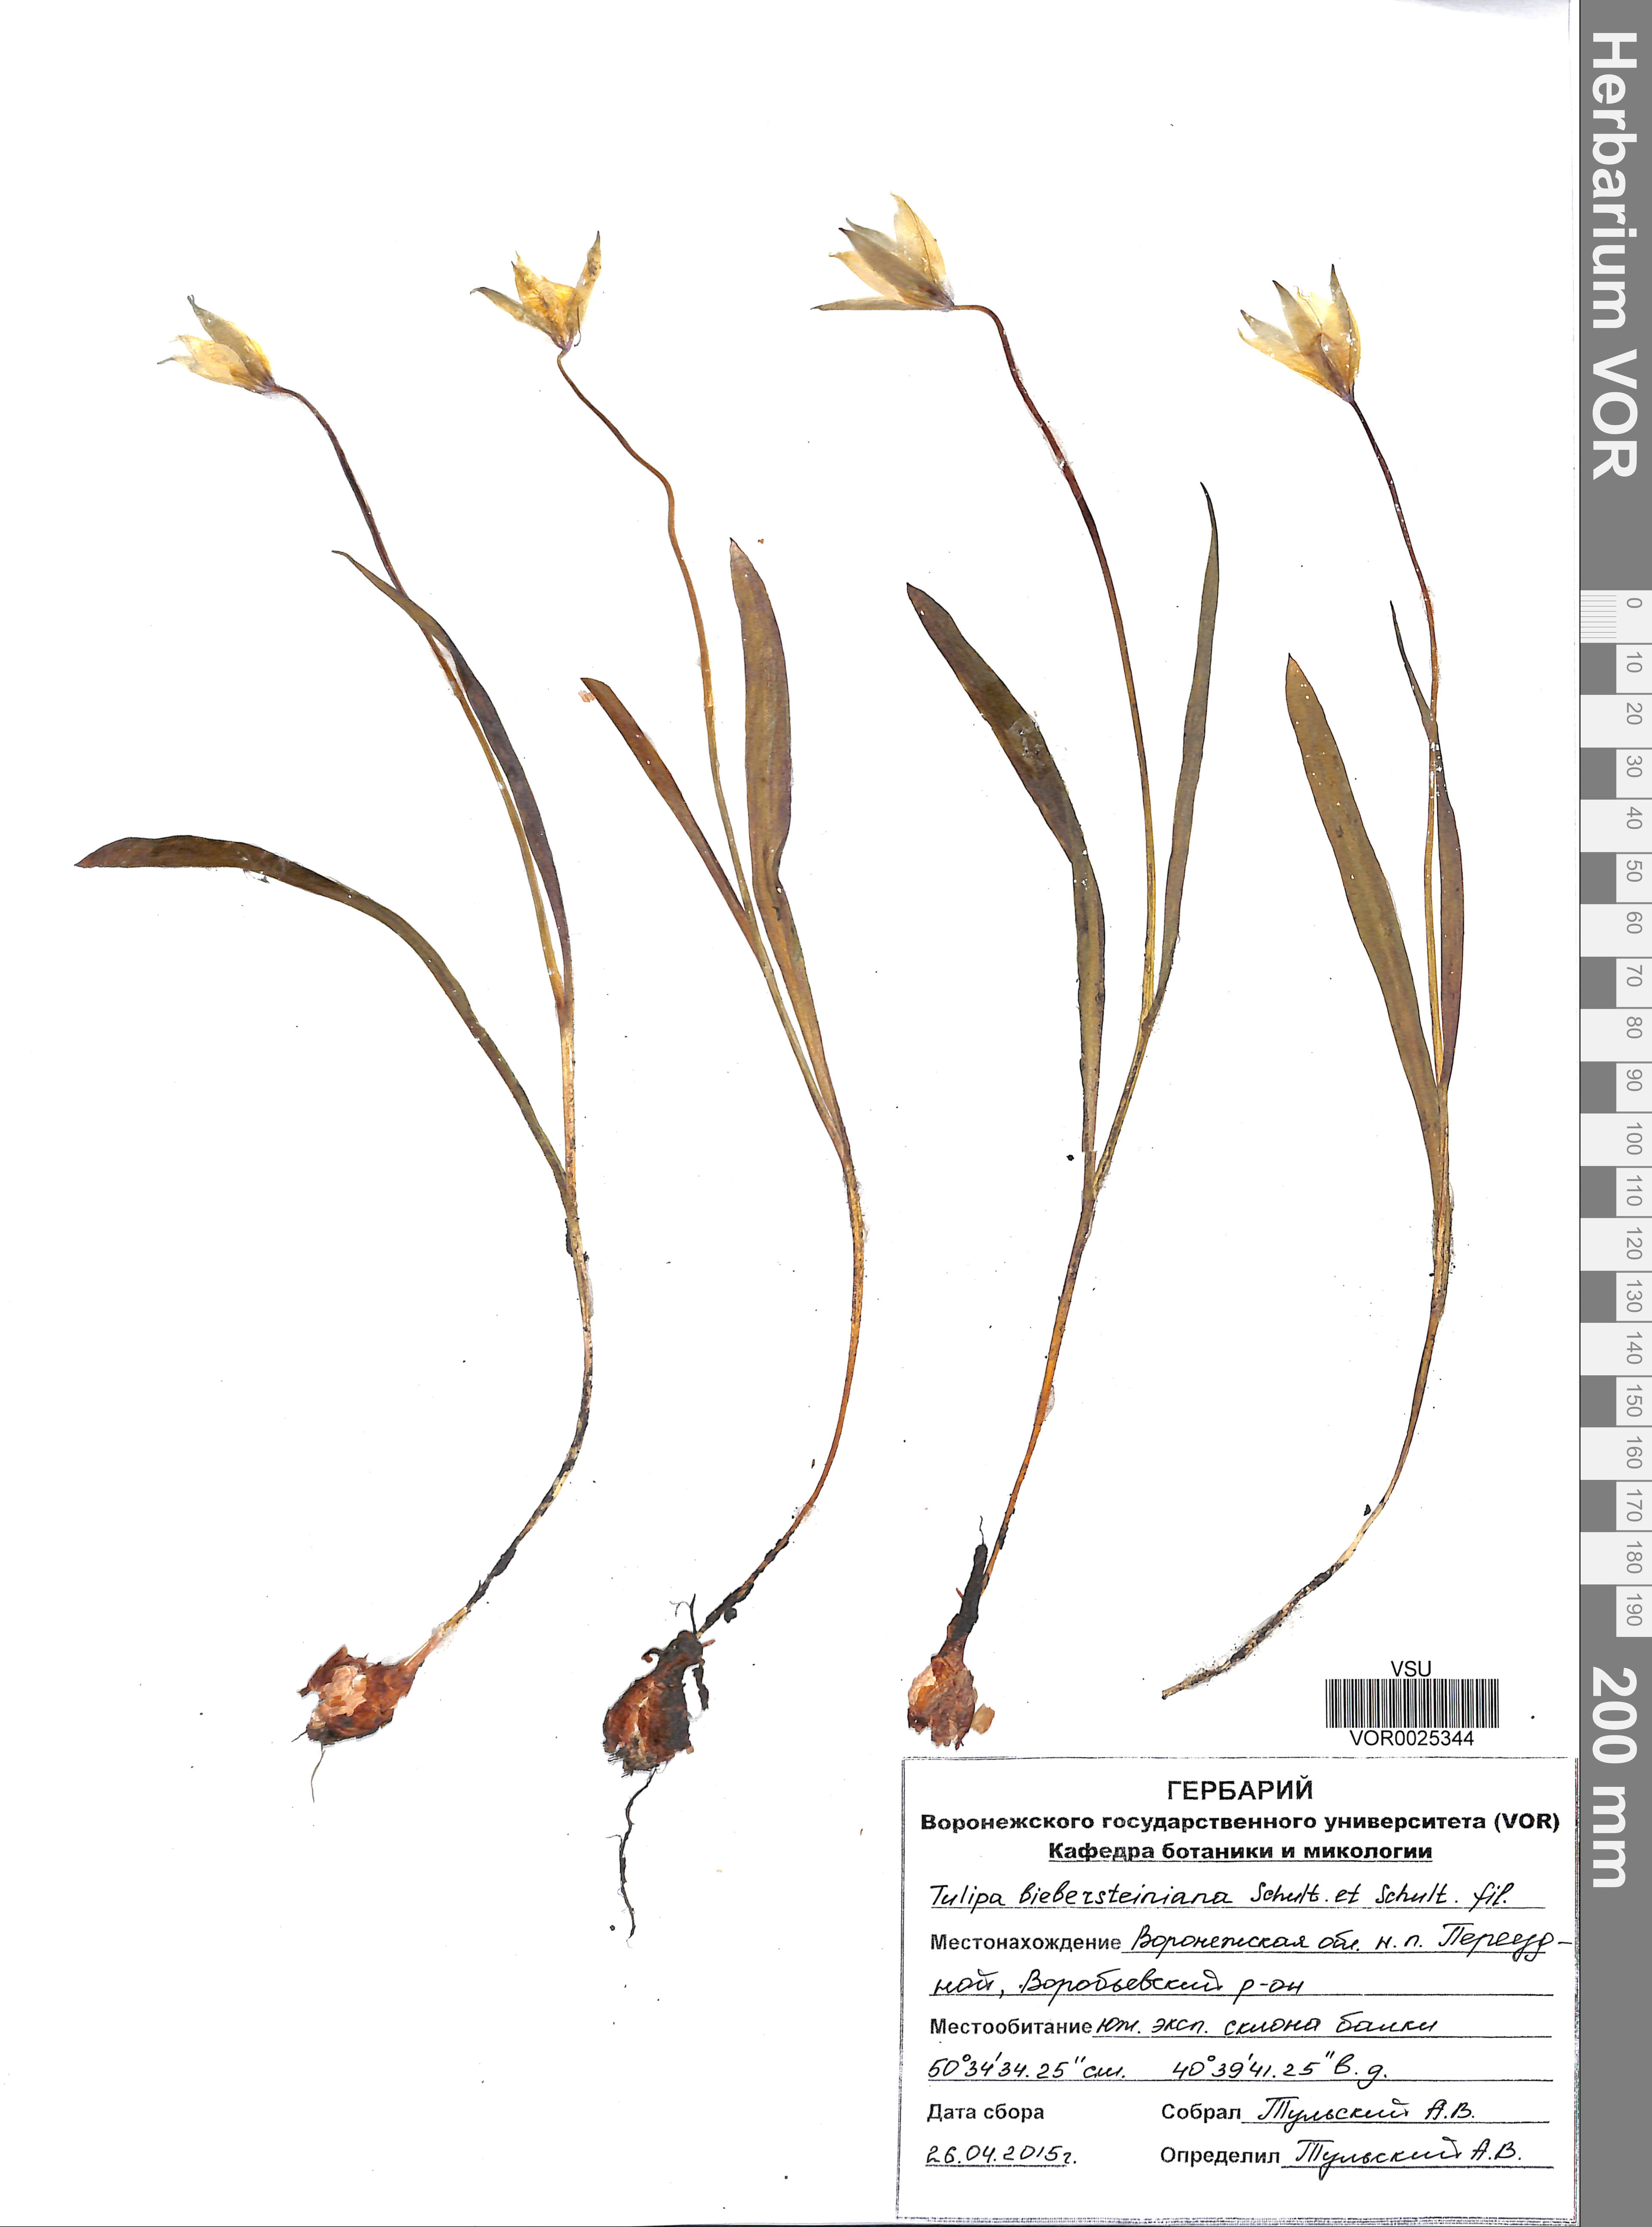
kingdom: Plantae
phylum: Tracheophyta
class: Liliopsida
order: Liliales
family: Liliaceae
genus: Tulipa
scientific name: Tulipa sylvestris
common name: Wild tulip
